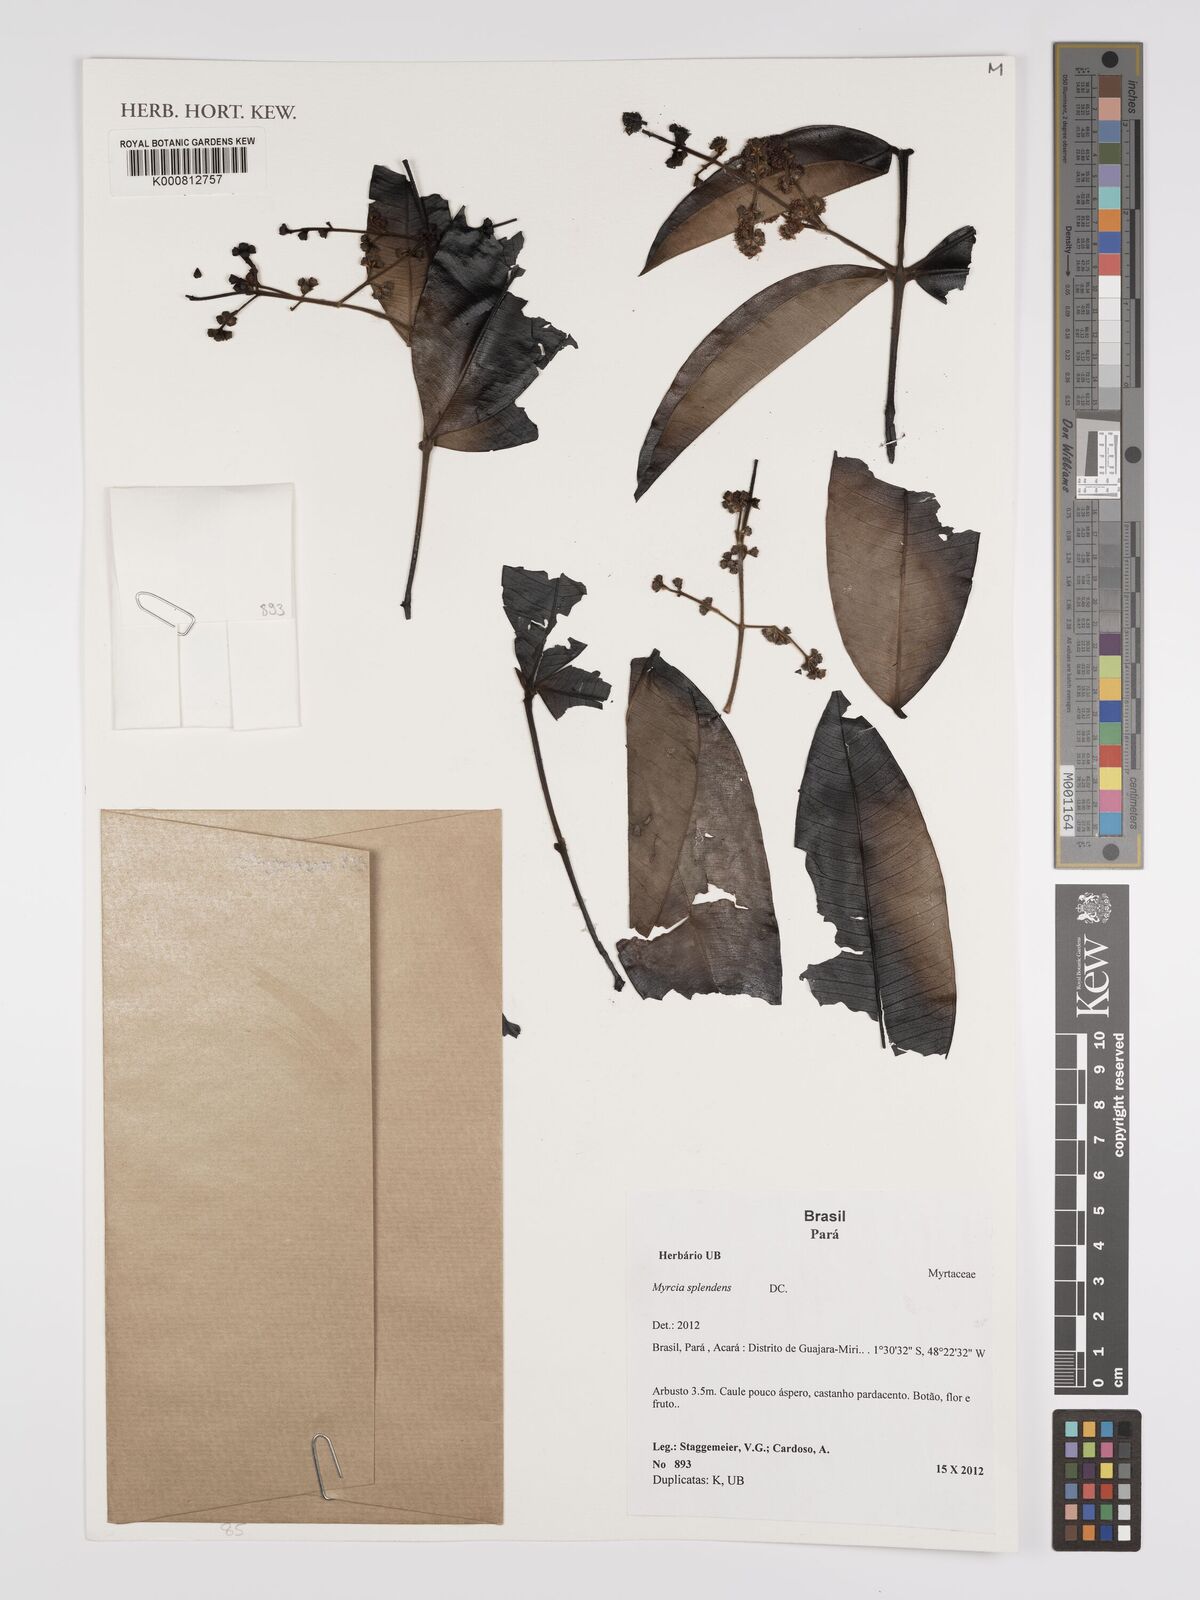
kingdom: Plantae
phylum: Tracheophyta
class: Magnoliopsida
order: Myrtales
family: Myrtaceae
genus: Myrcia
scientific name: Myrcia splendens
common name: Surinam cherry
